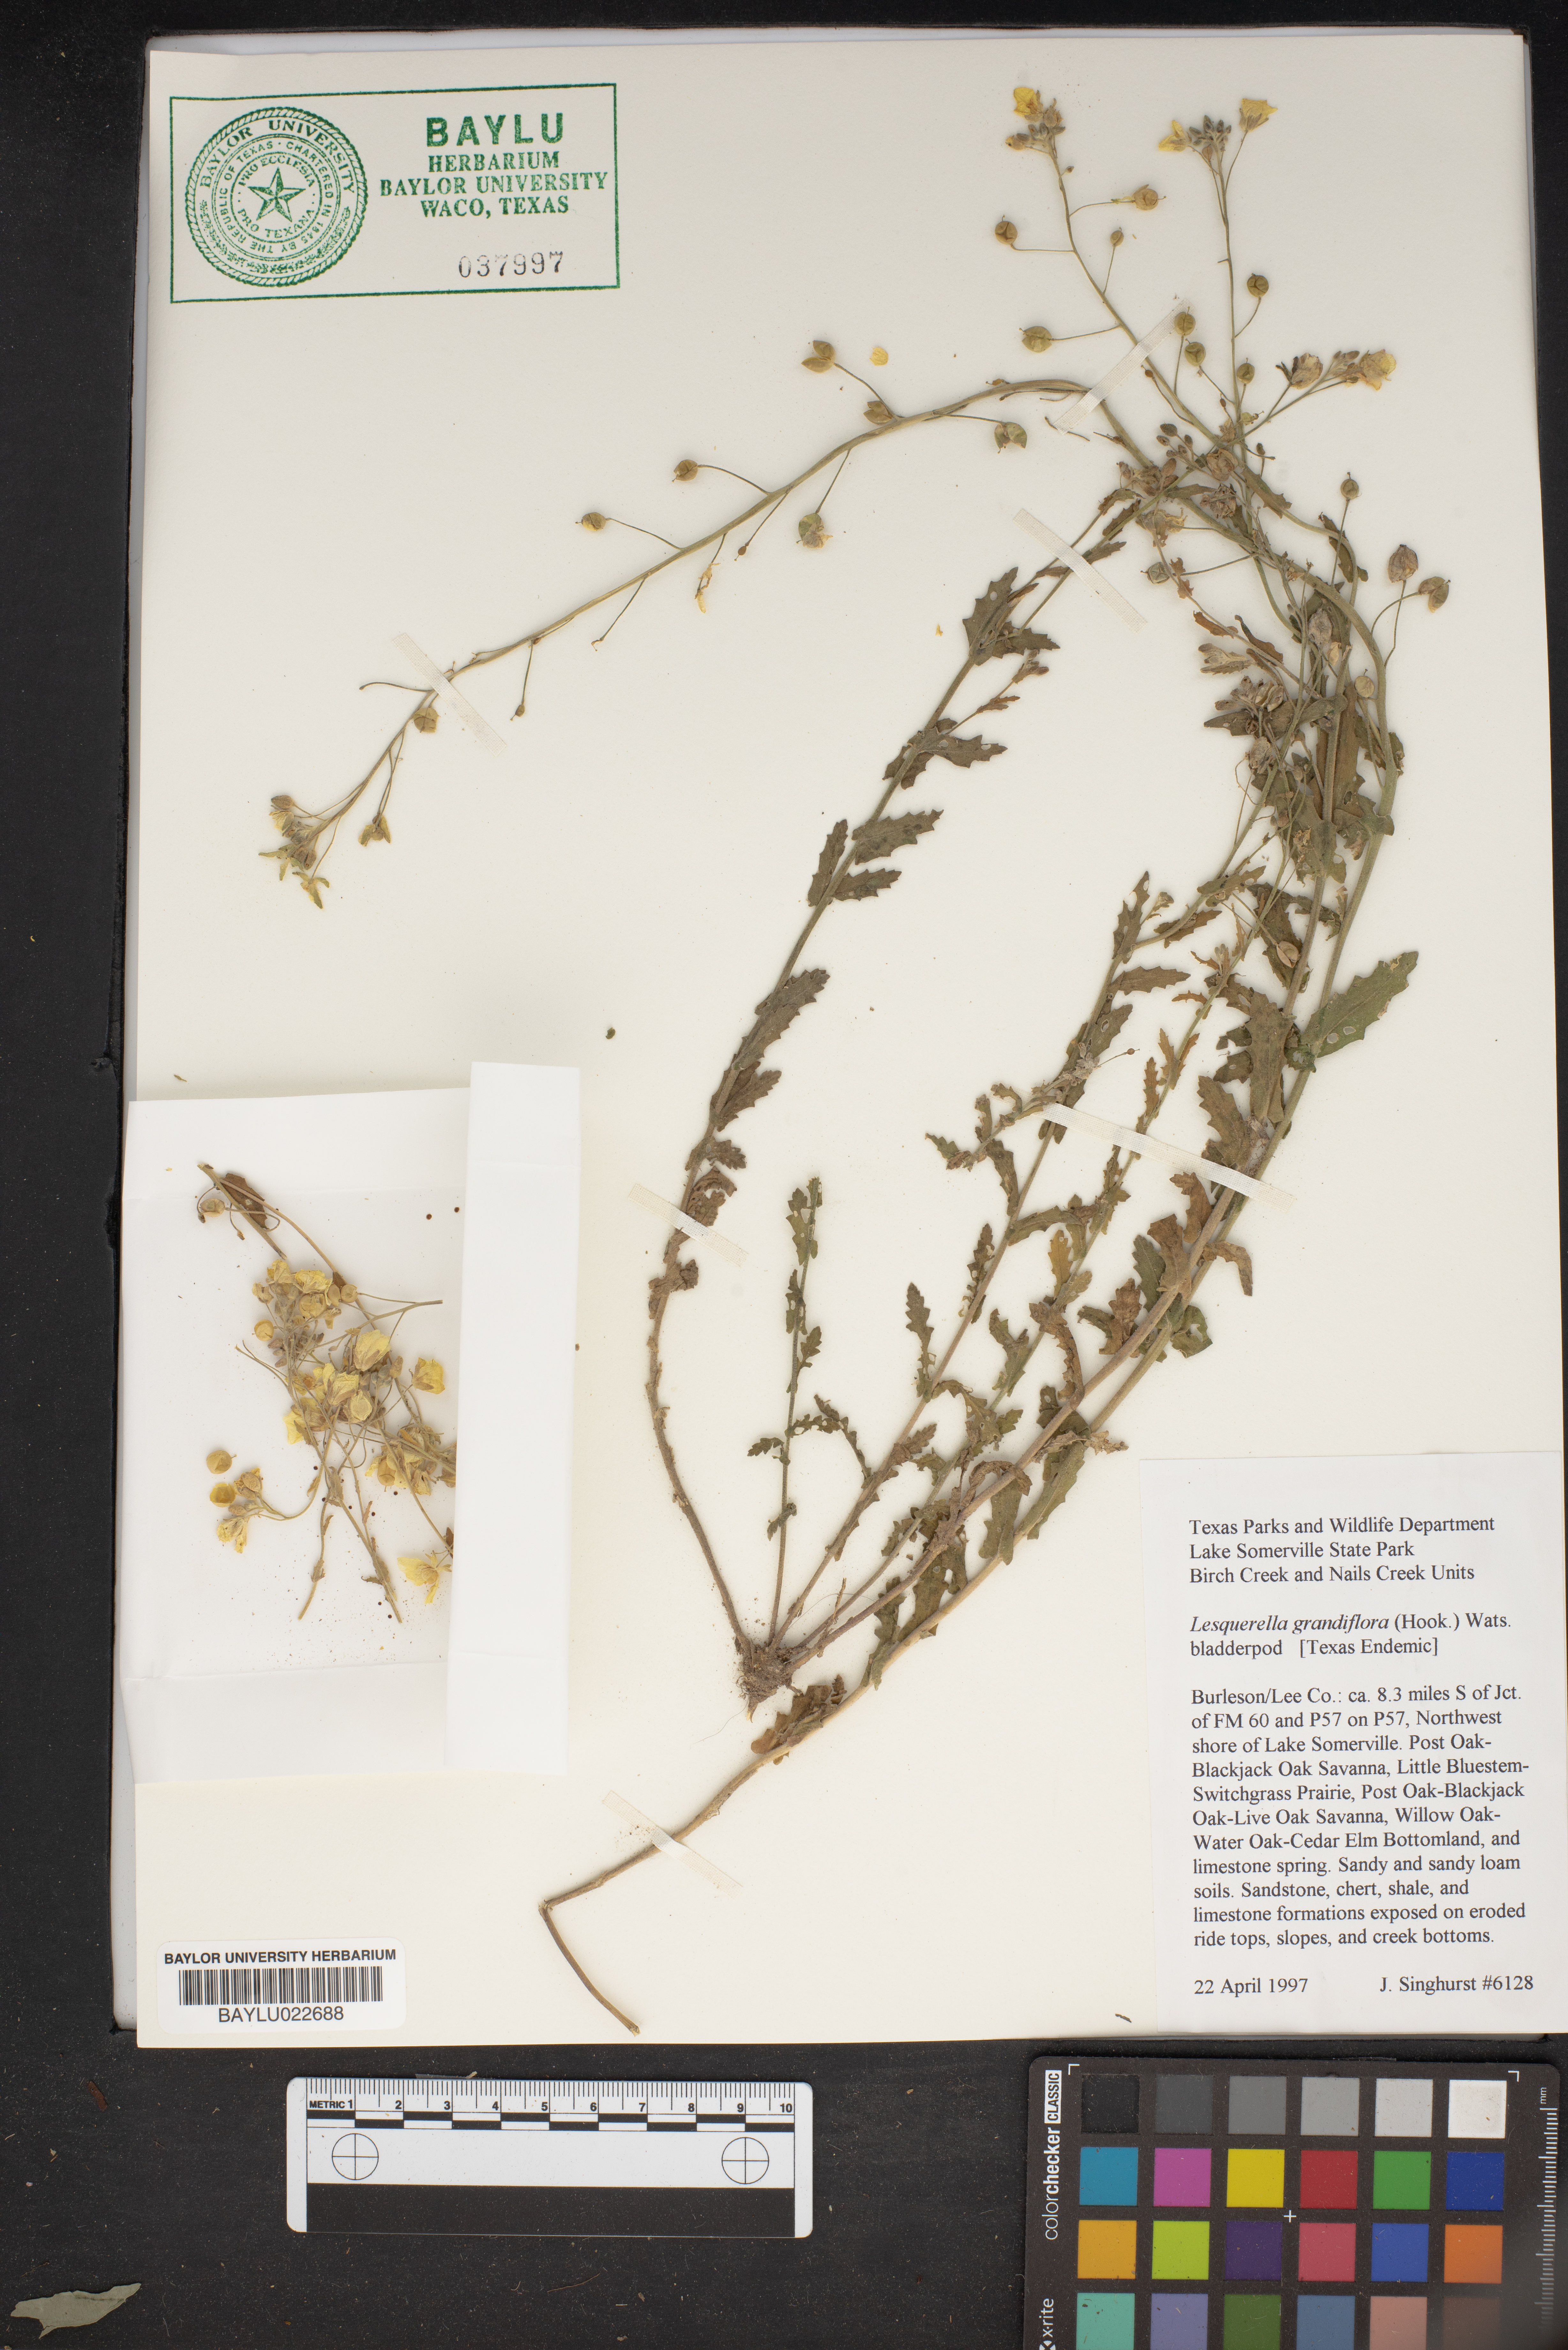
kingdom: Plantae
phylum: Tracheophyta
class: Magnoliopsida
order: Brassicales
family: Brassicaceae
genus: Paysonia
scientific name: Paysonia grandiflora
